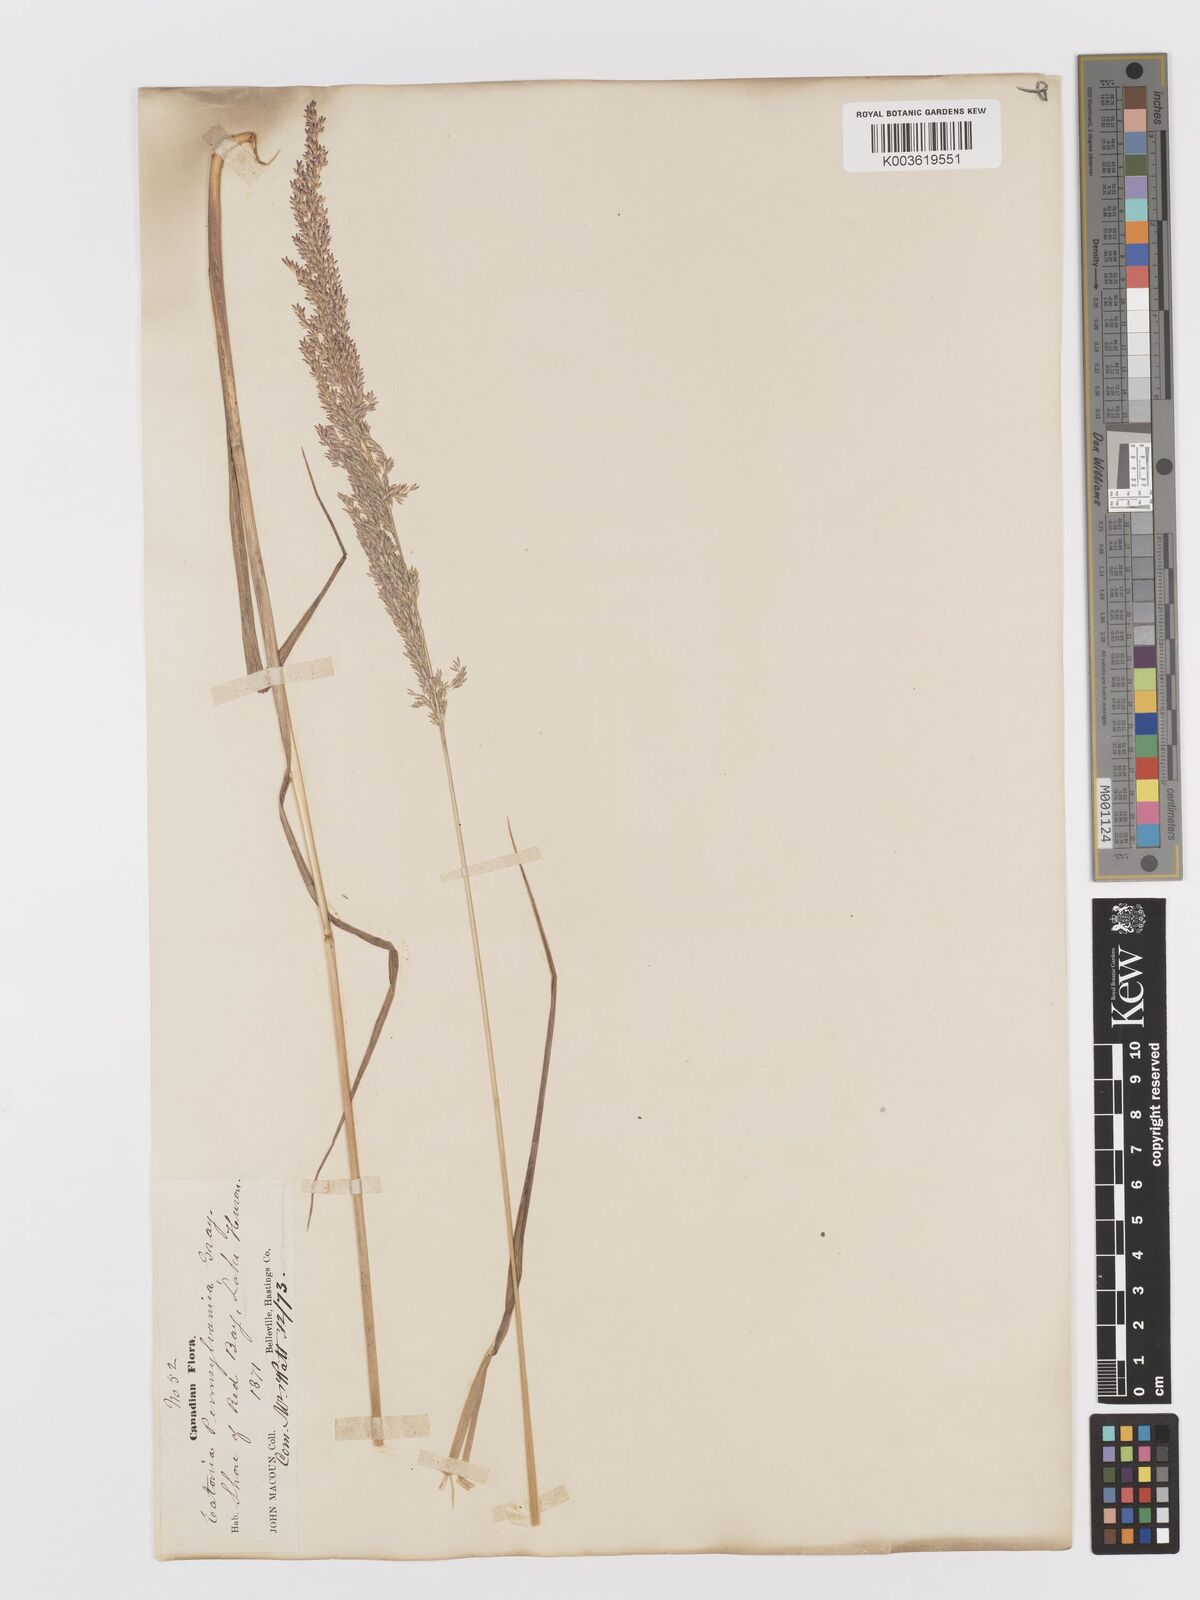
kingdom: Plantae
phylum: Tracheophyta
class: Liliopsida
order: Poales
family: Poaceae
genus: Sphenopholis
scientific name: Sphenopholis obtusata
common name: Prairie grass
